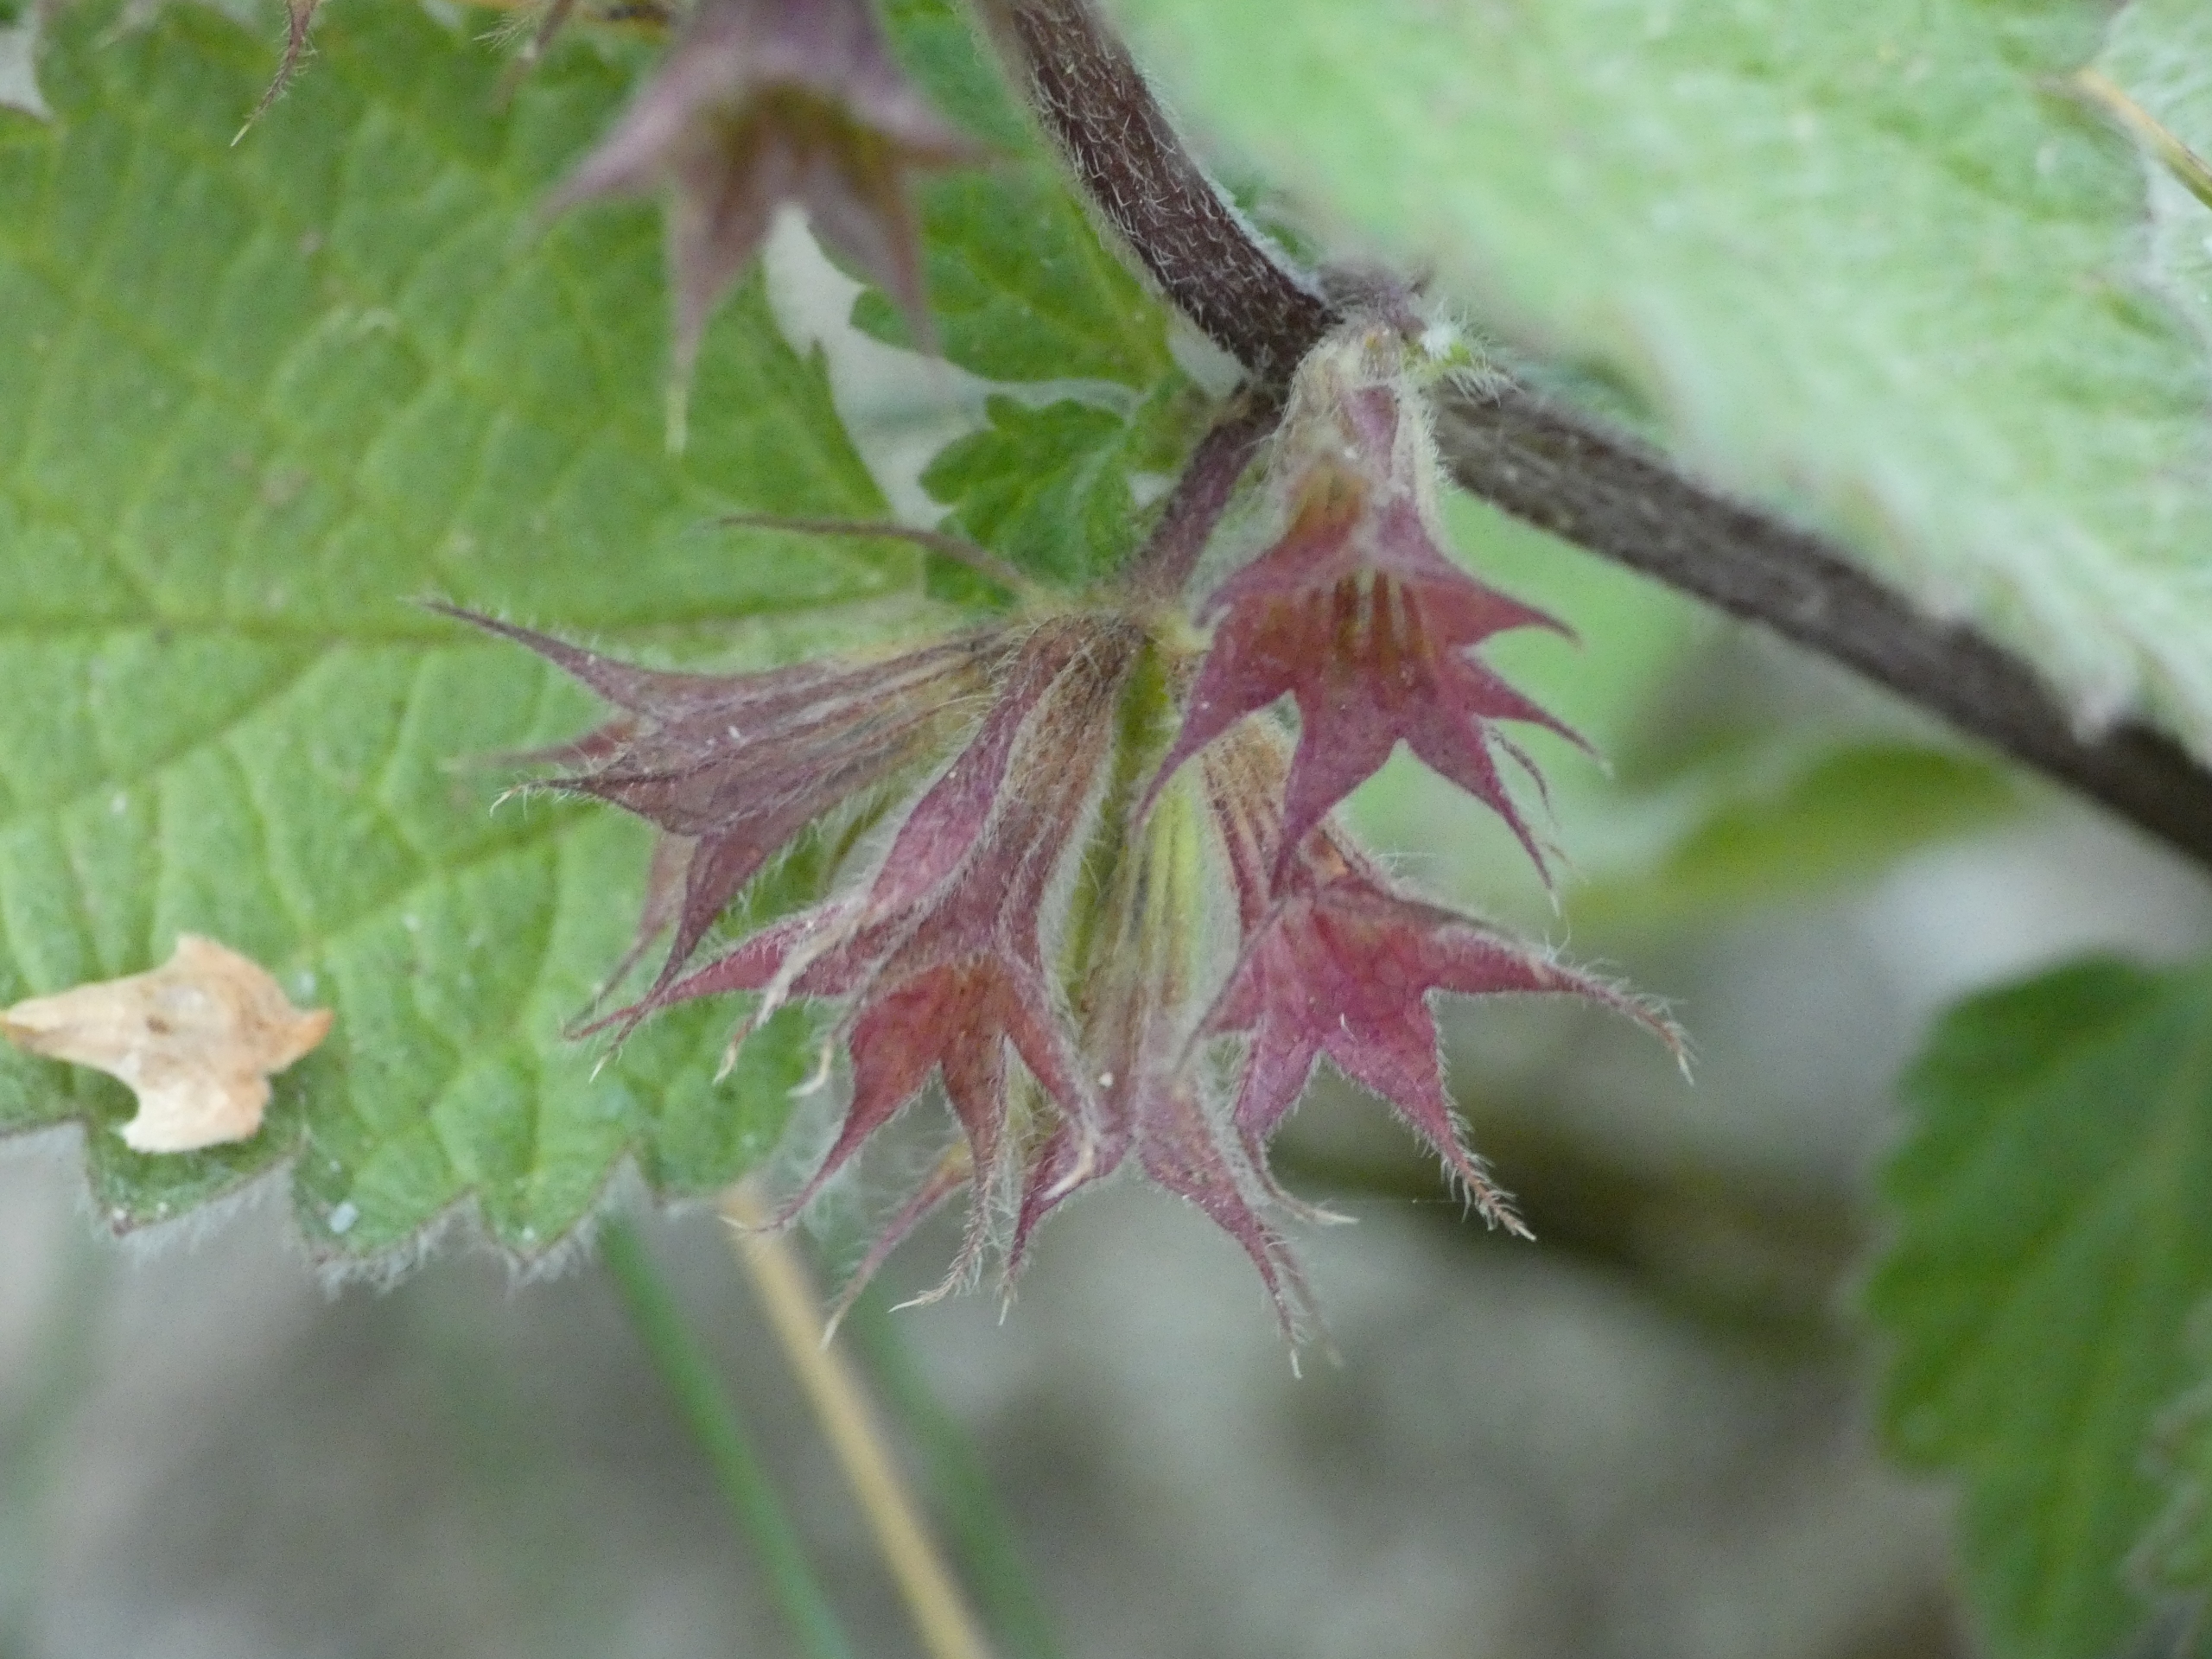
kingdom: Plantae
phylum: Tracheophyta
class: Magnoliopsida
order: Lamiales
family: Lamiaceae
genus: Ballota
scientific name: Ballota nigra
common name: Rød tandbæger
